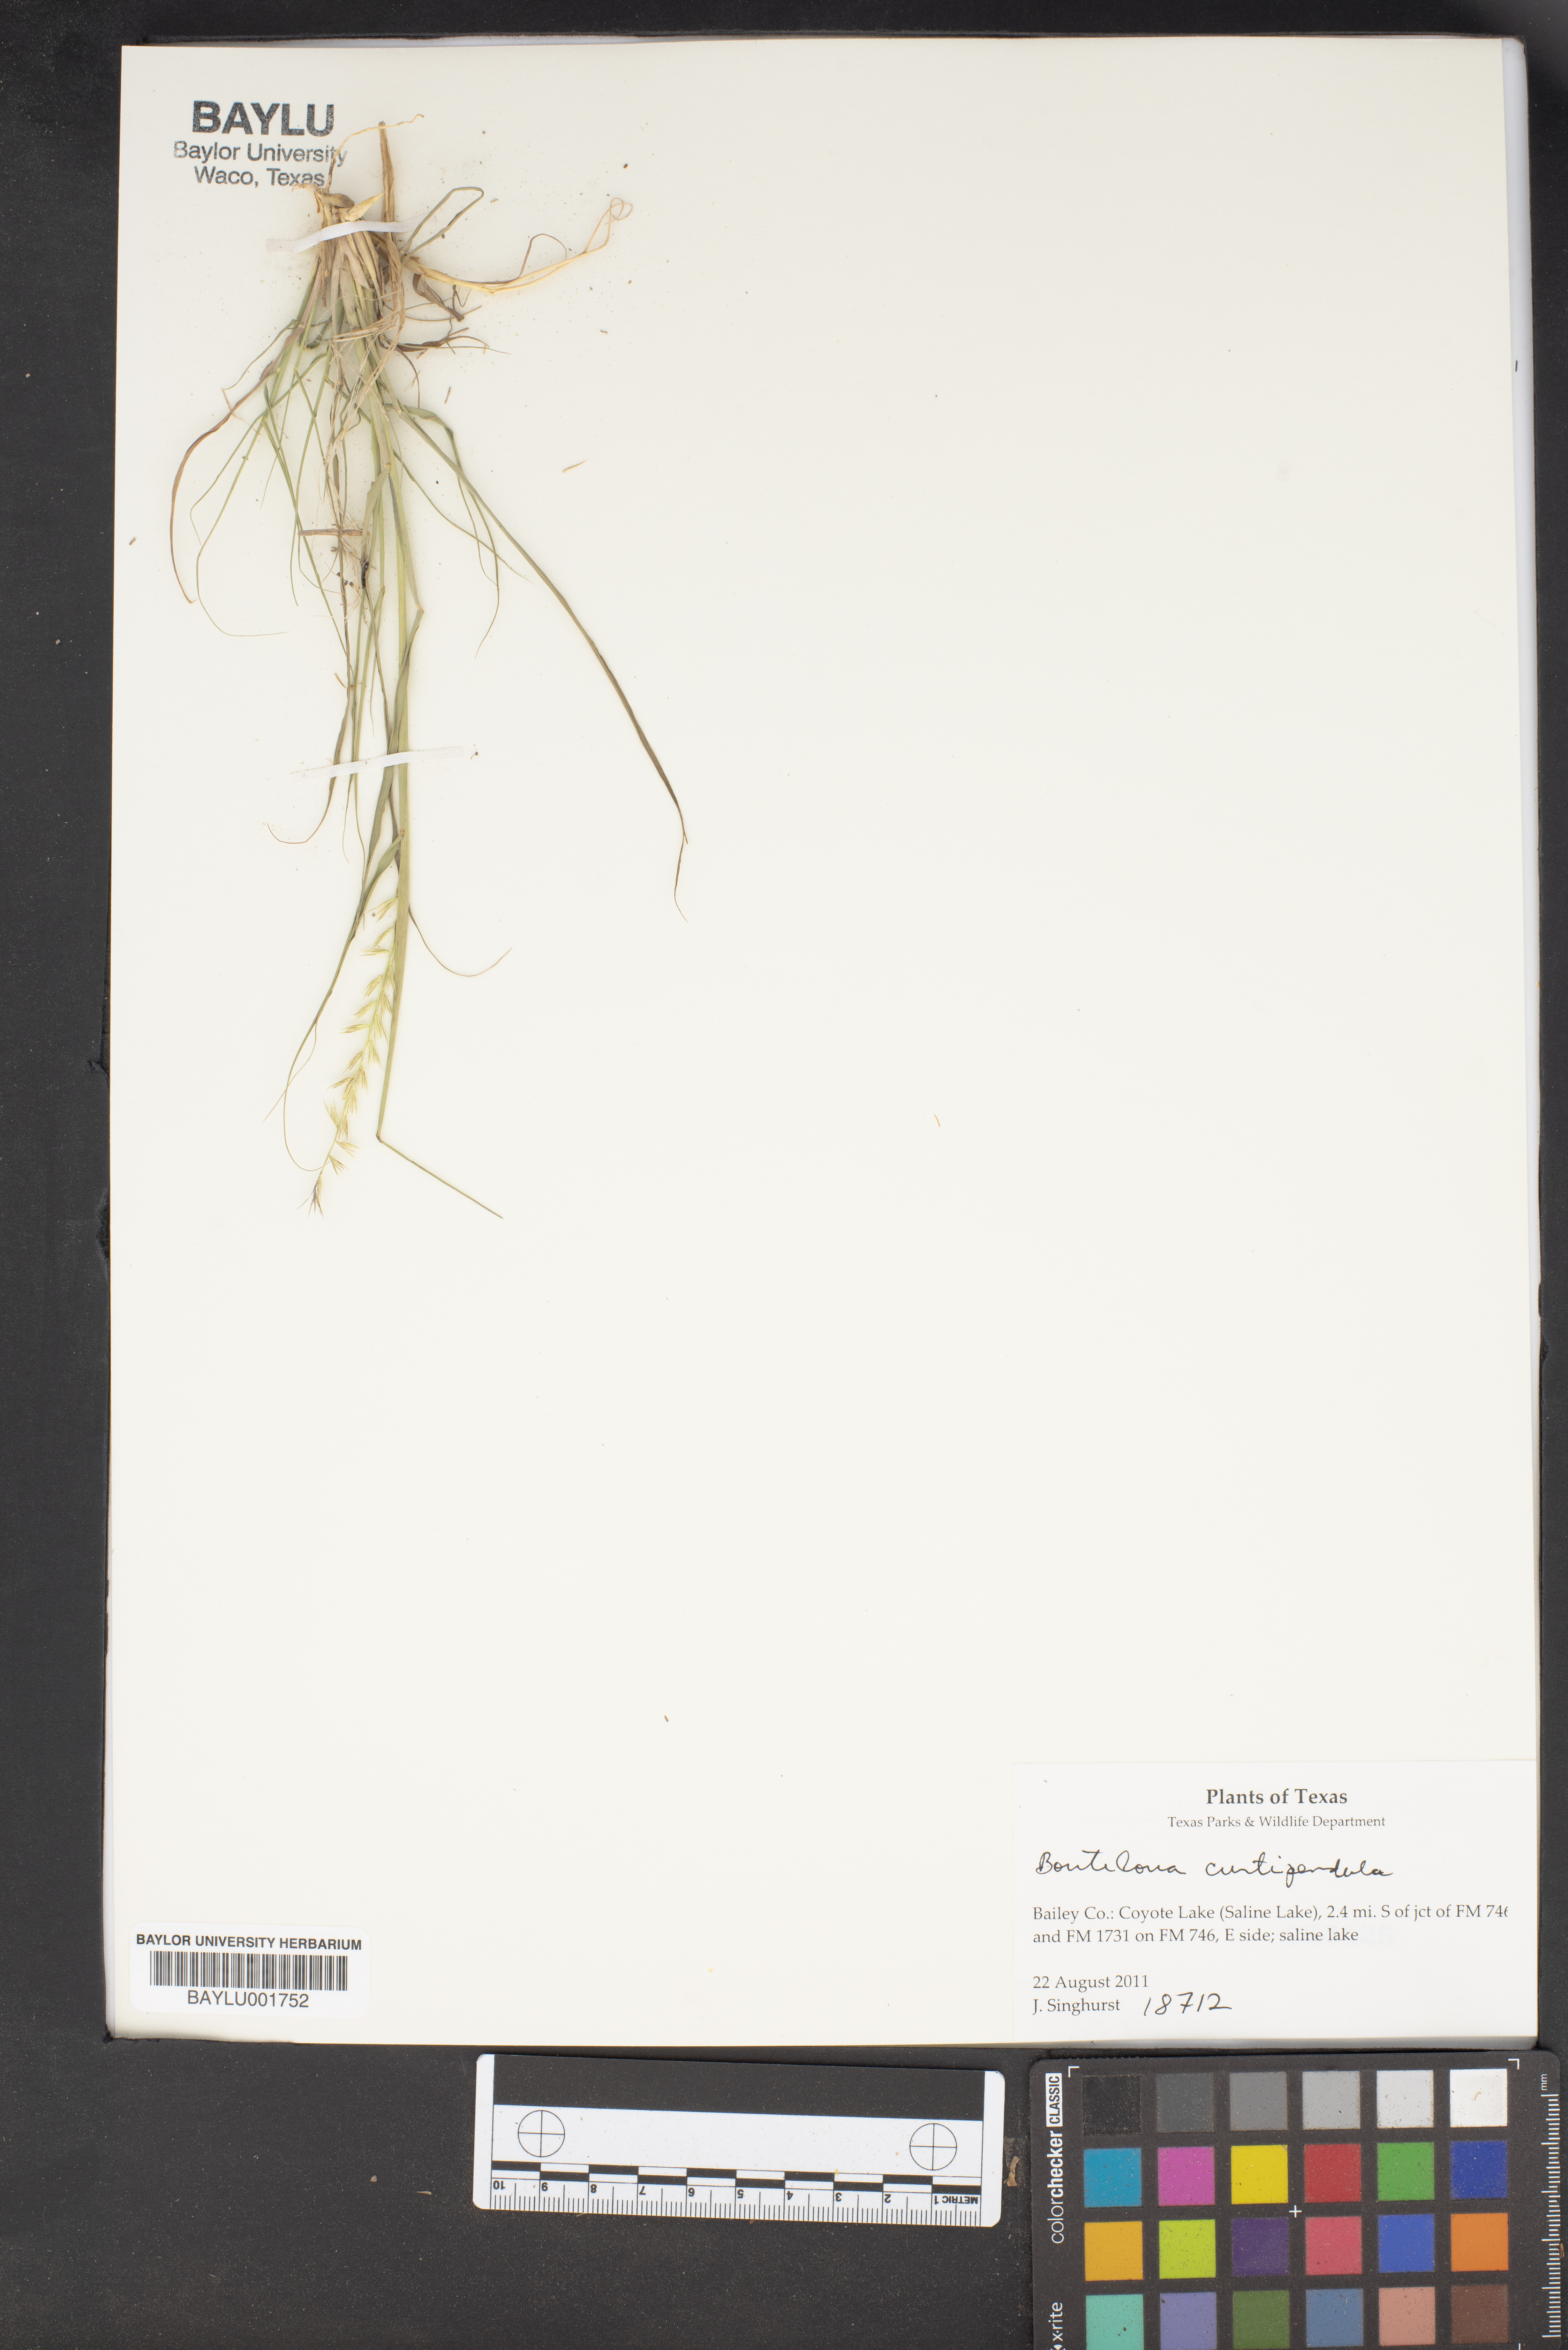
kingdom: Plantae
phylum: Tracheophyta
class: Liliopsida
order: Poales
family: Poaceae
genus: Bouteloua
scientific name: Bouteloua curtipendula
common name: Side-oats grama
